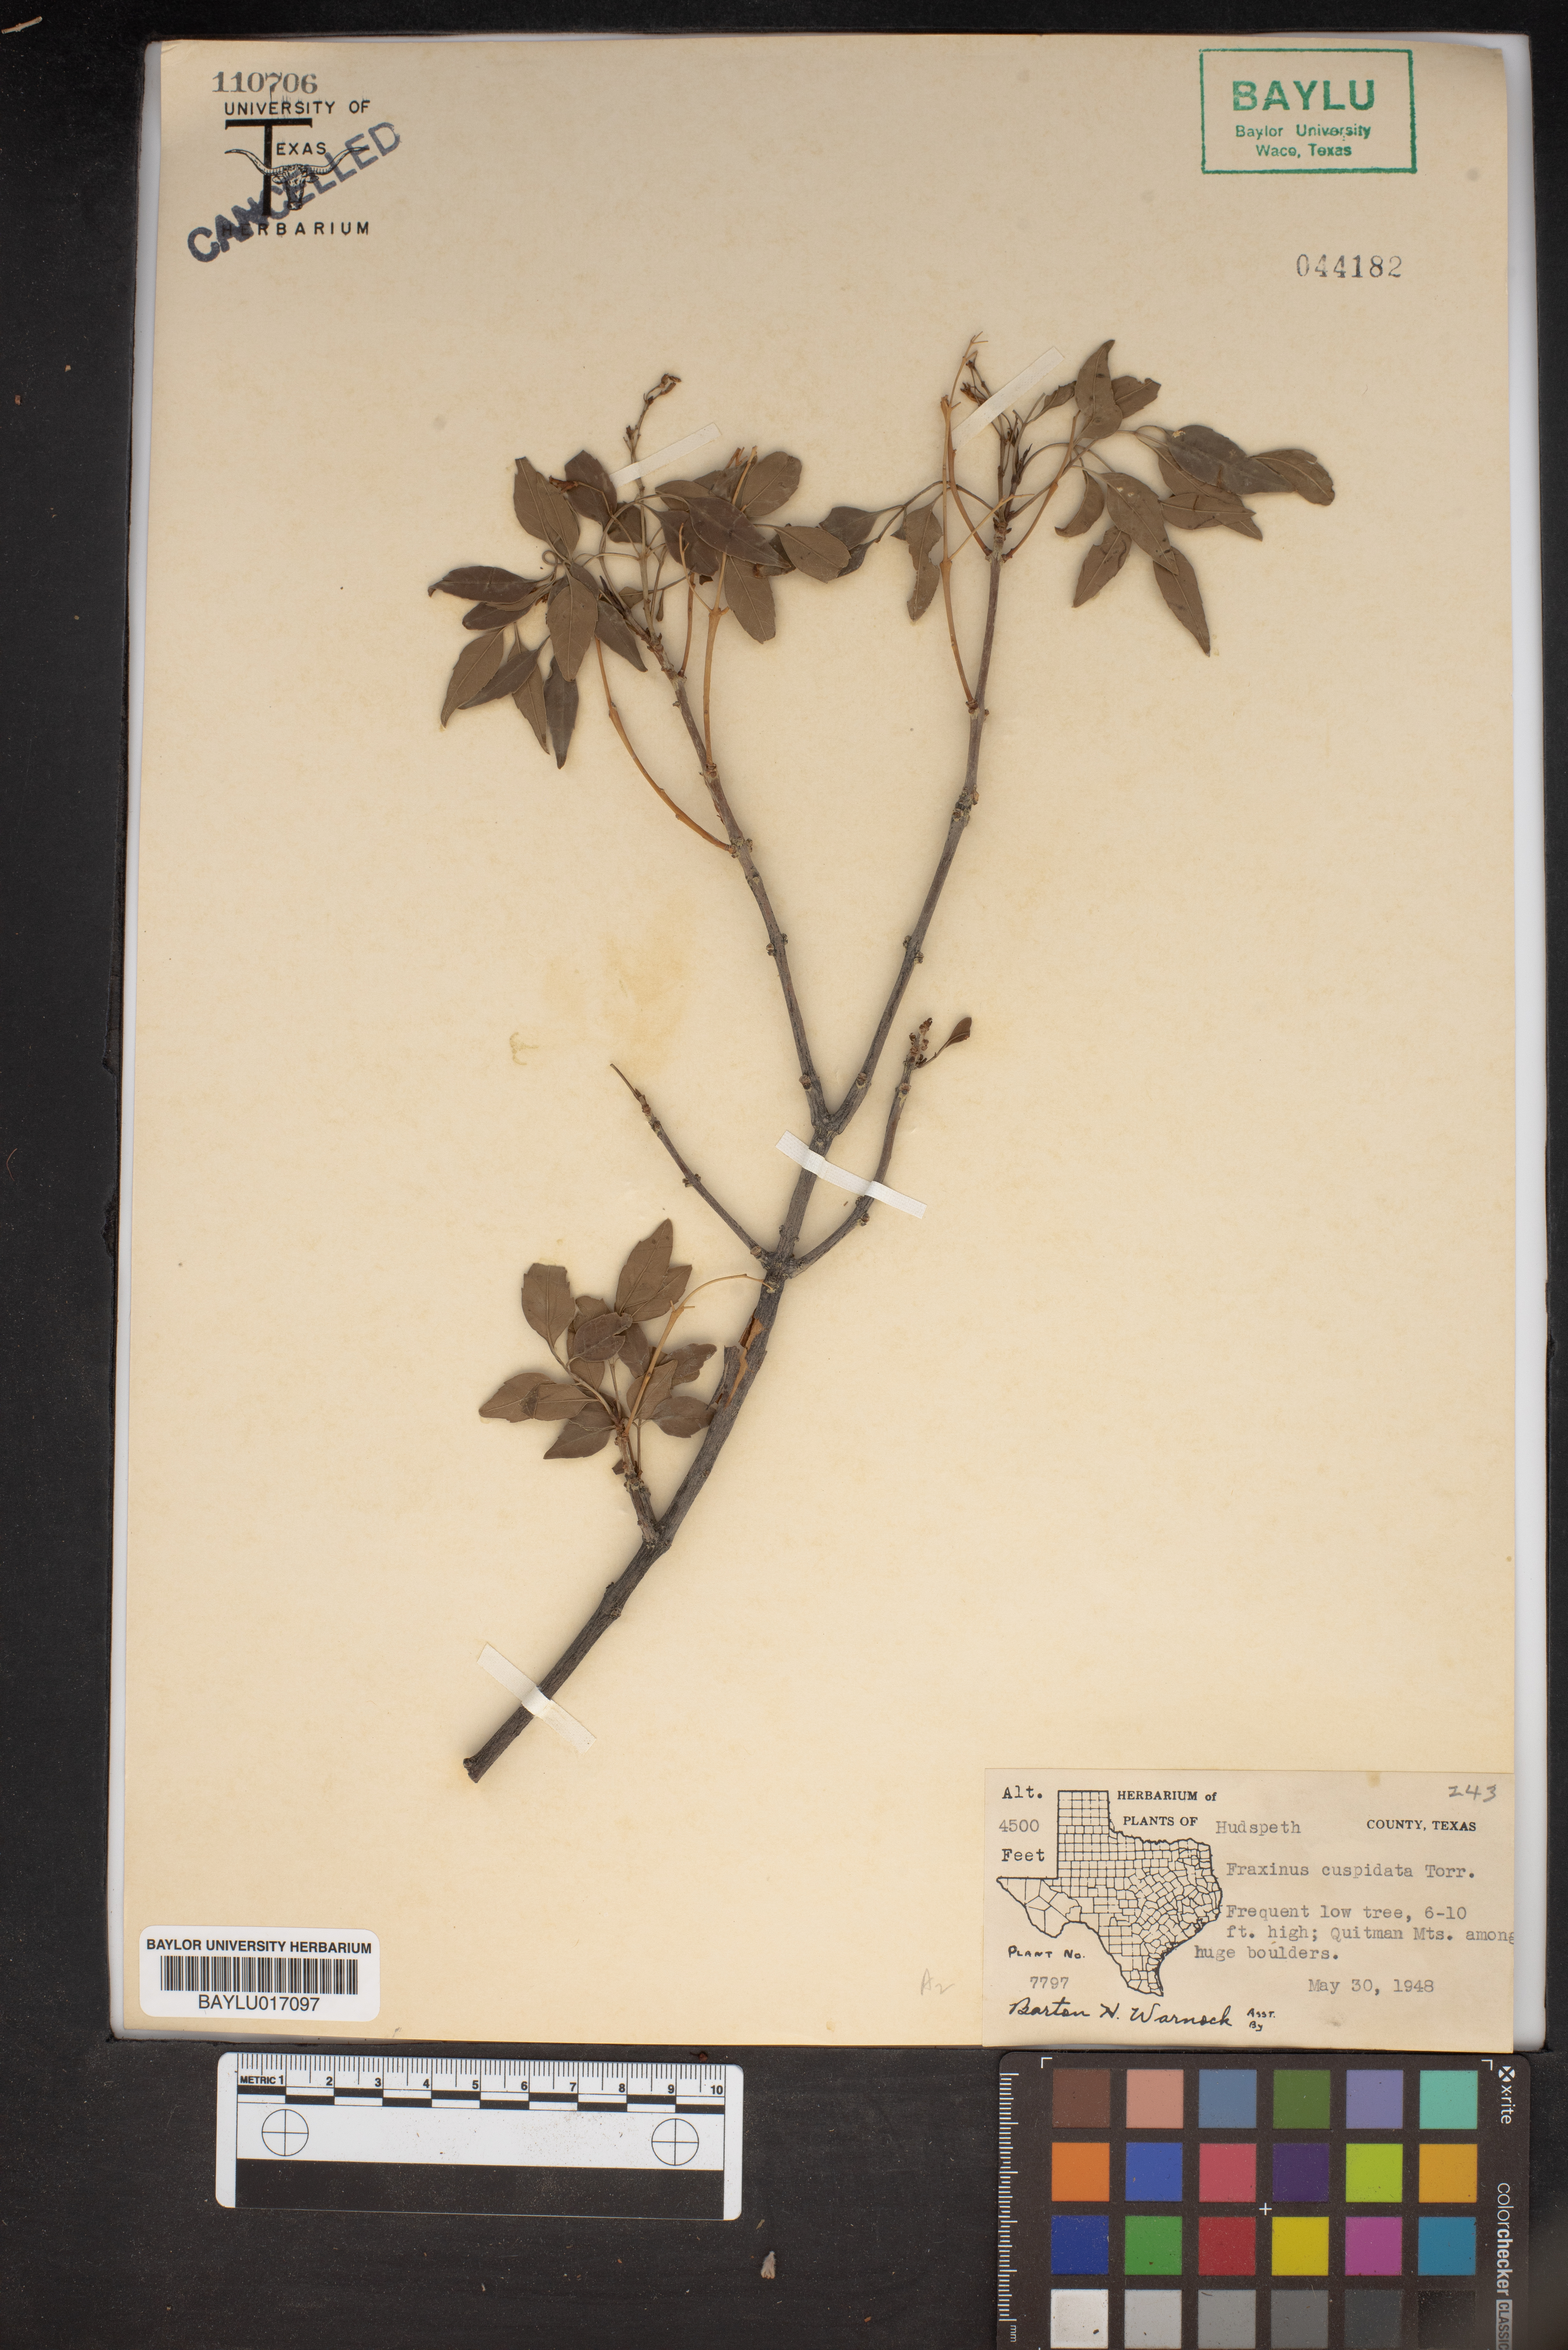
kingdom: Plantae
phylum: Tracheophyta
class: Magnoliopsida
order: Lamiales
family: Oleaceae
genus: Fraxinus
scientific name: Fraxinus cuspidata
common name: Fragrant ash
